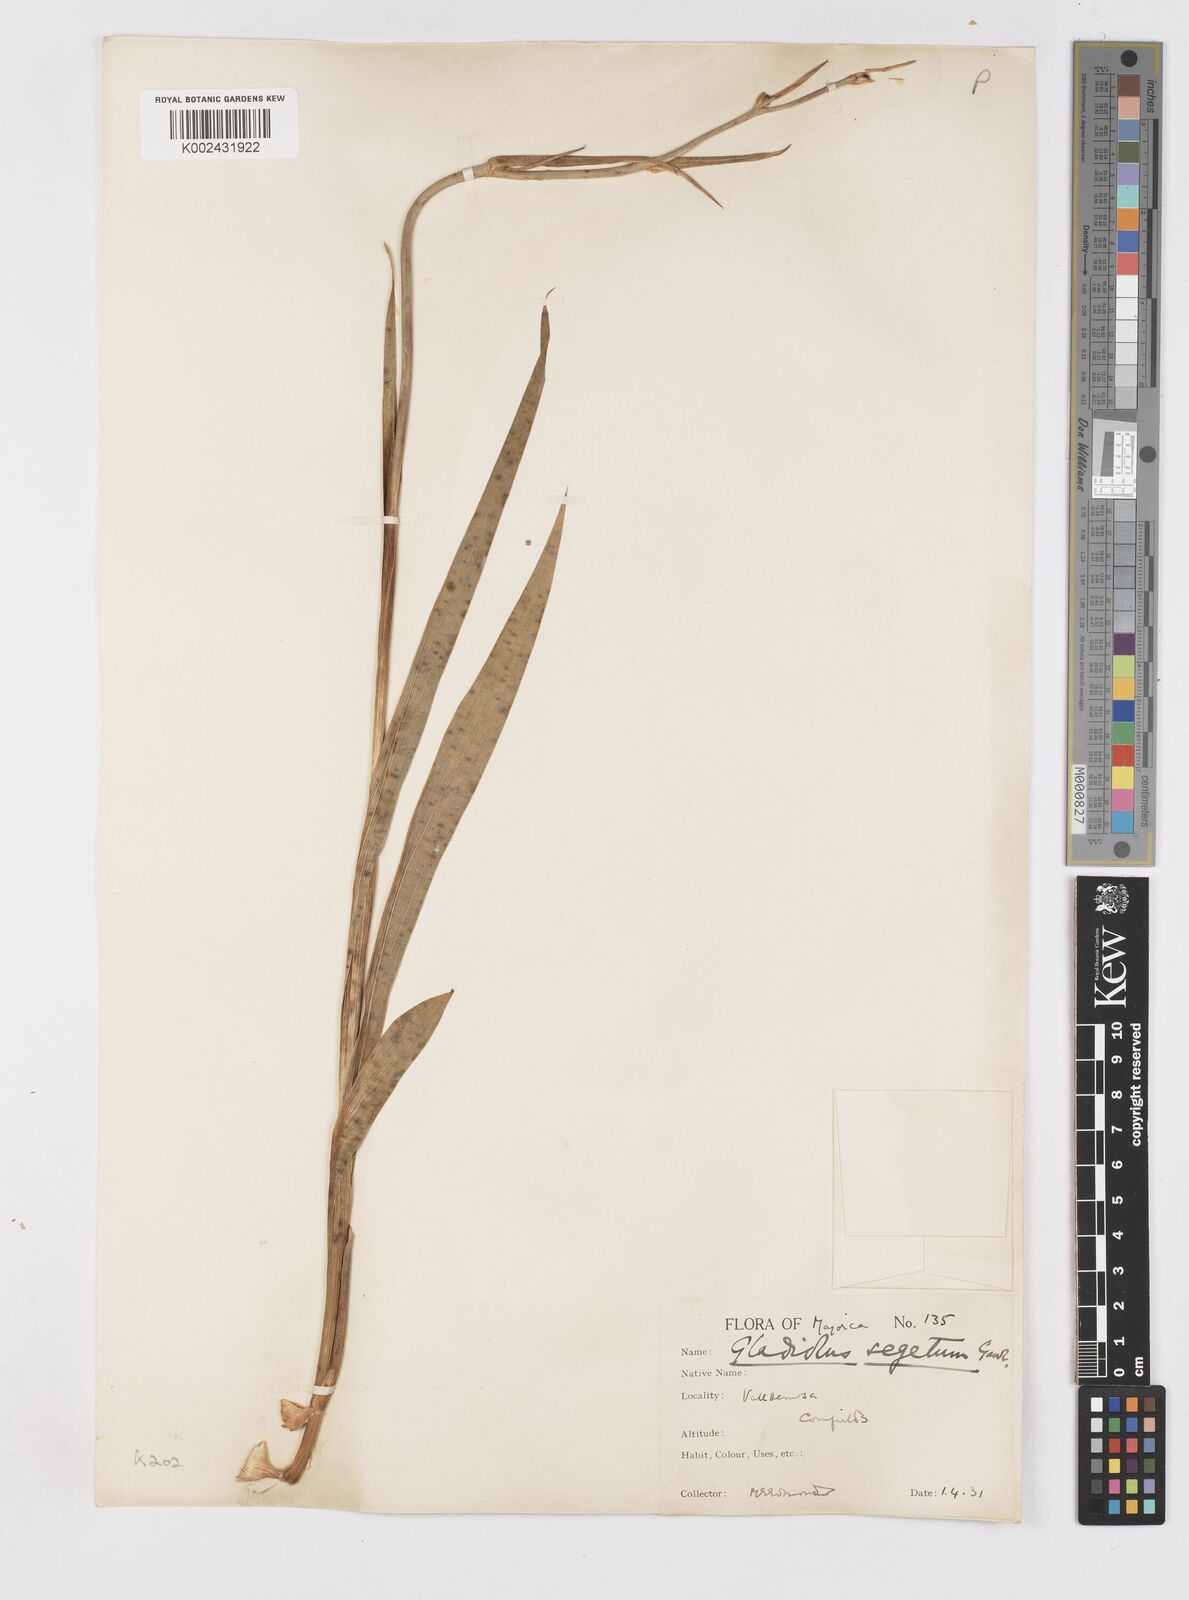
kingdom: Plantae
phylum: Tracheophyta
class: Liliopsida
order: Asparagales
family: Iridaceae
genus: Gladiolus
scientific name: Gladiolus italicus
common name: Field gladiolus
